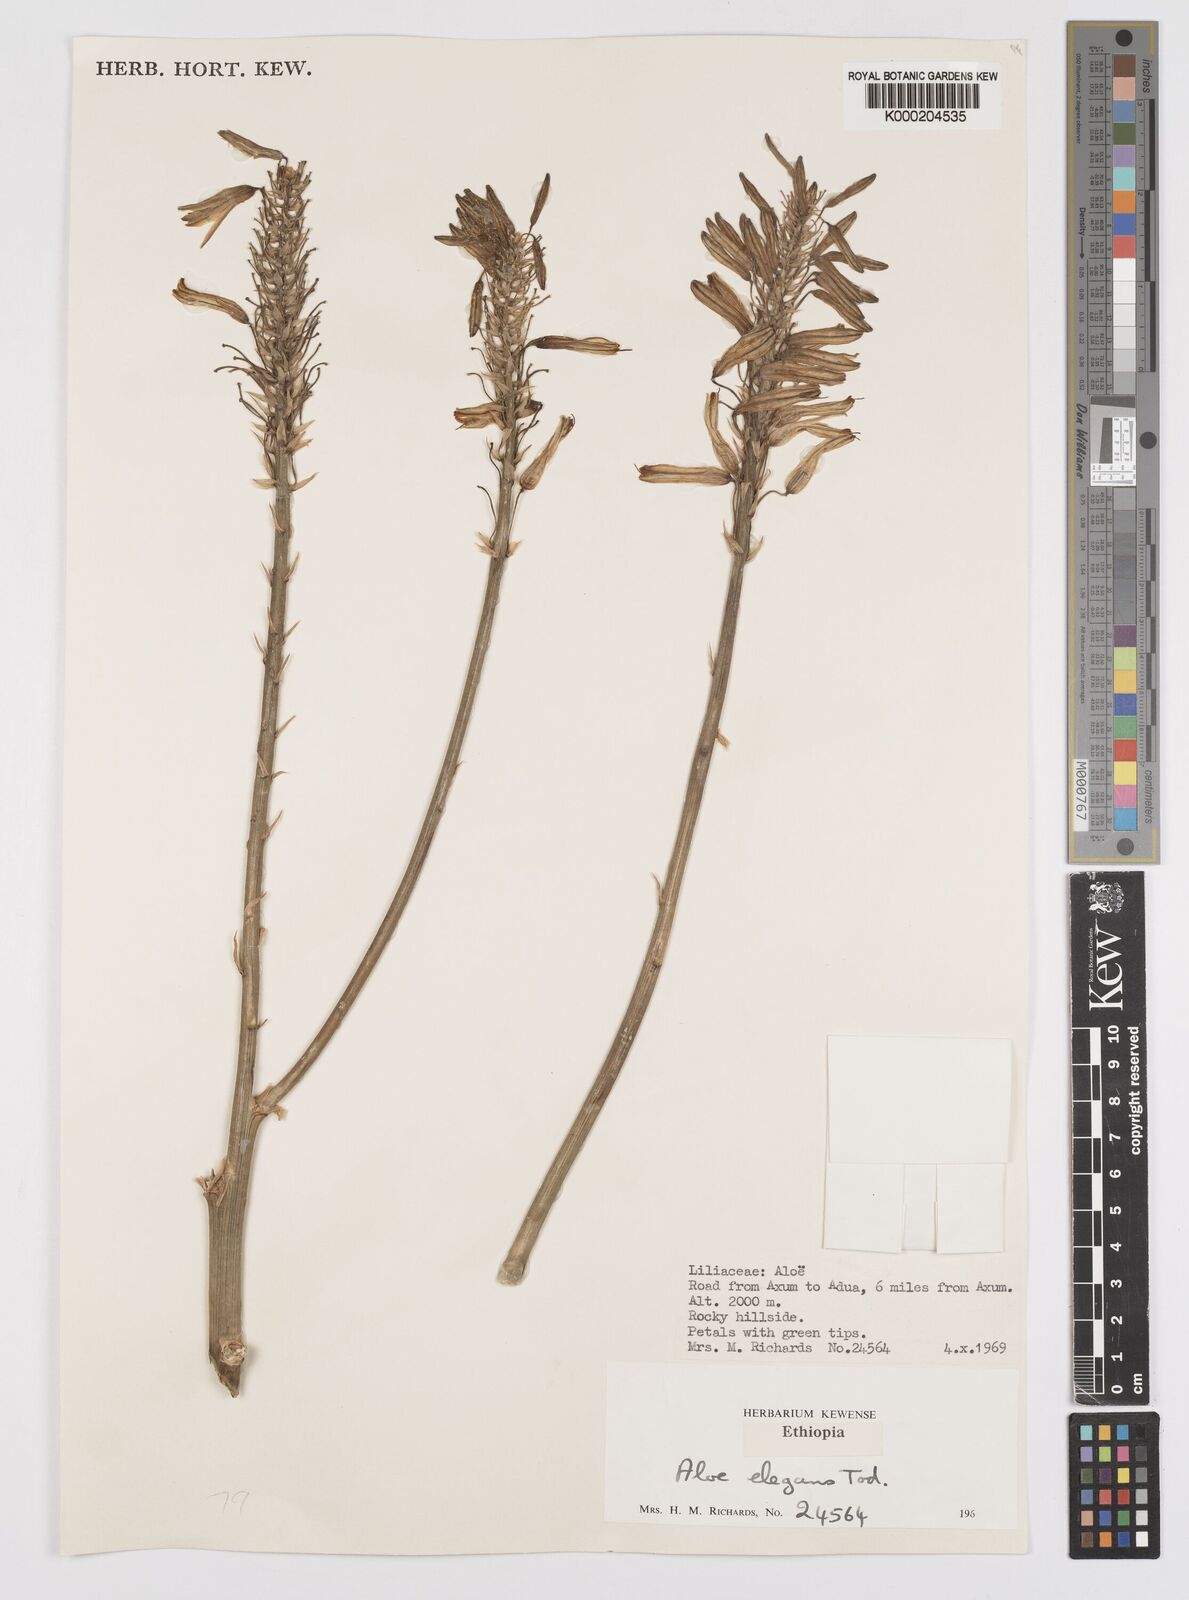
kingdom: Plantae
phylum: Tracheophyta
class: Liliopsida
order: Asparagales
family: Asphodelaceae
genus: Aloe
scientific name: Aloe elegans
